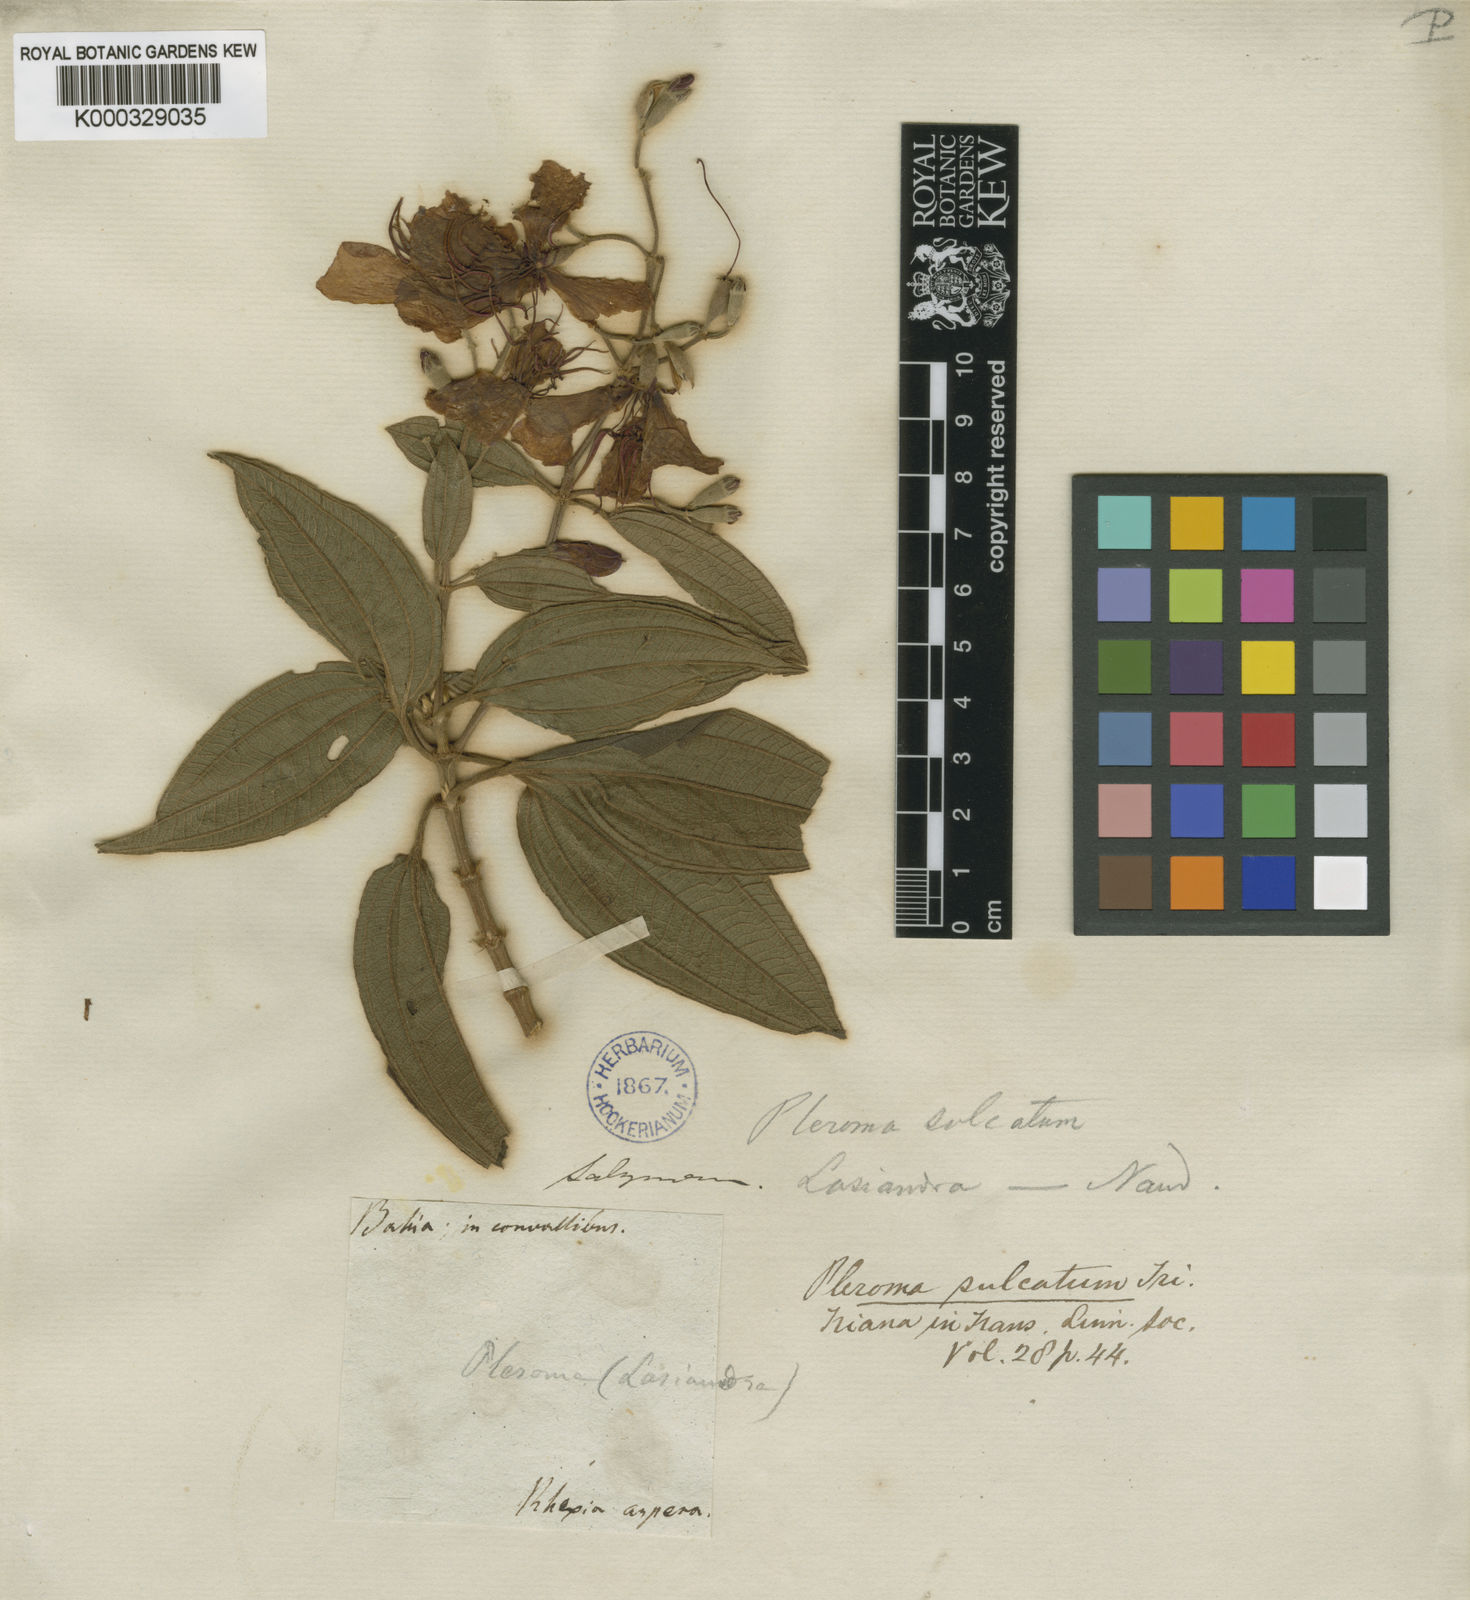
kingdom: Plantae
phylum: Tracheophyta
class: Magnoliopsida
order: Myrtales
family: Melastomataceae
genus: Pleroma
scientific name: Pleroma salviifolium
